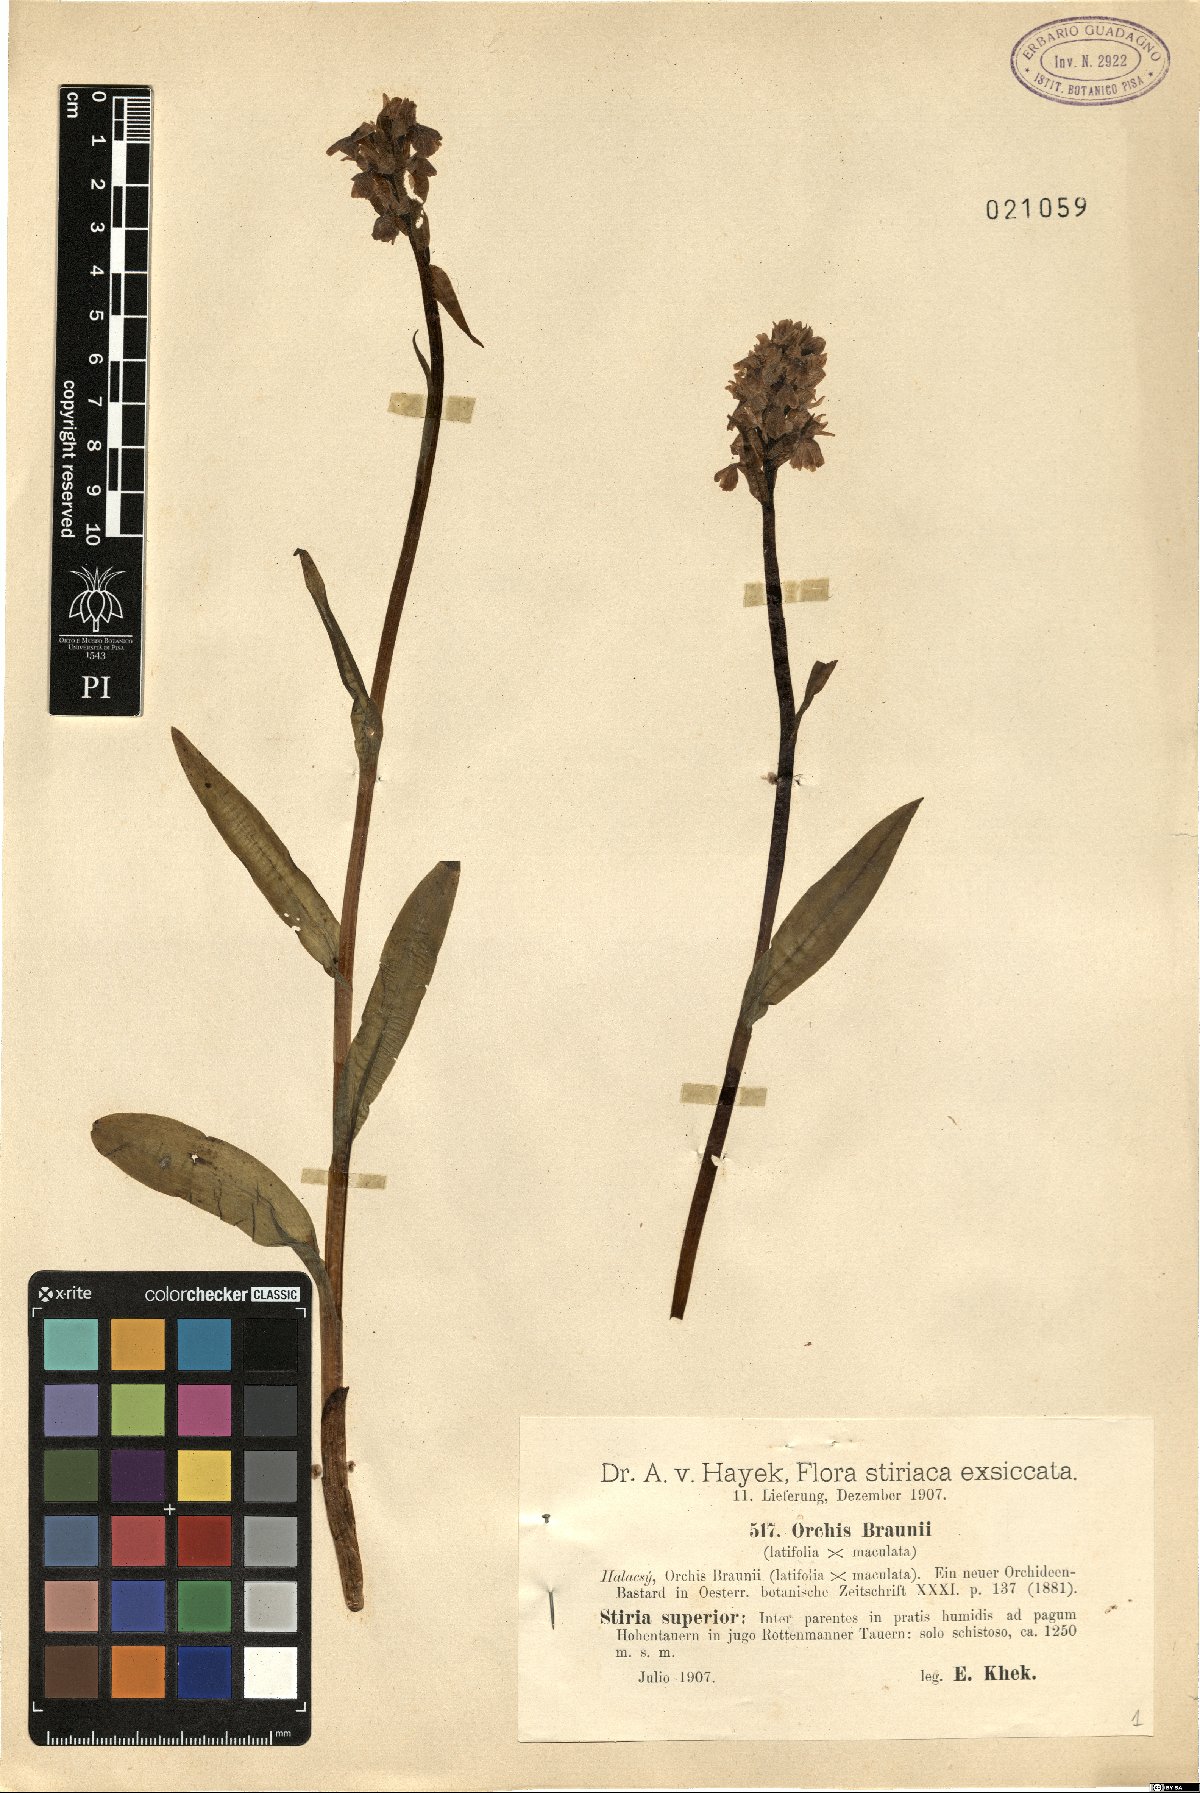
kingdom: Plantae
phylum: Tracheophyta
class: Liliopsida
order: Asparagales
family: Orchidaceae
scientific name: Orchidaceae
